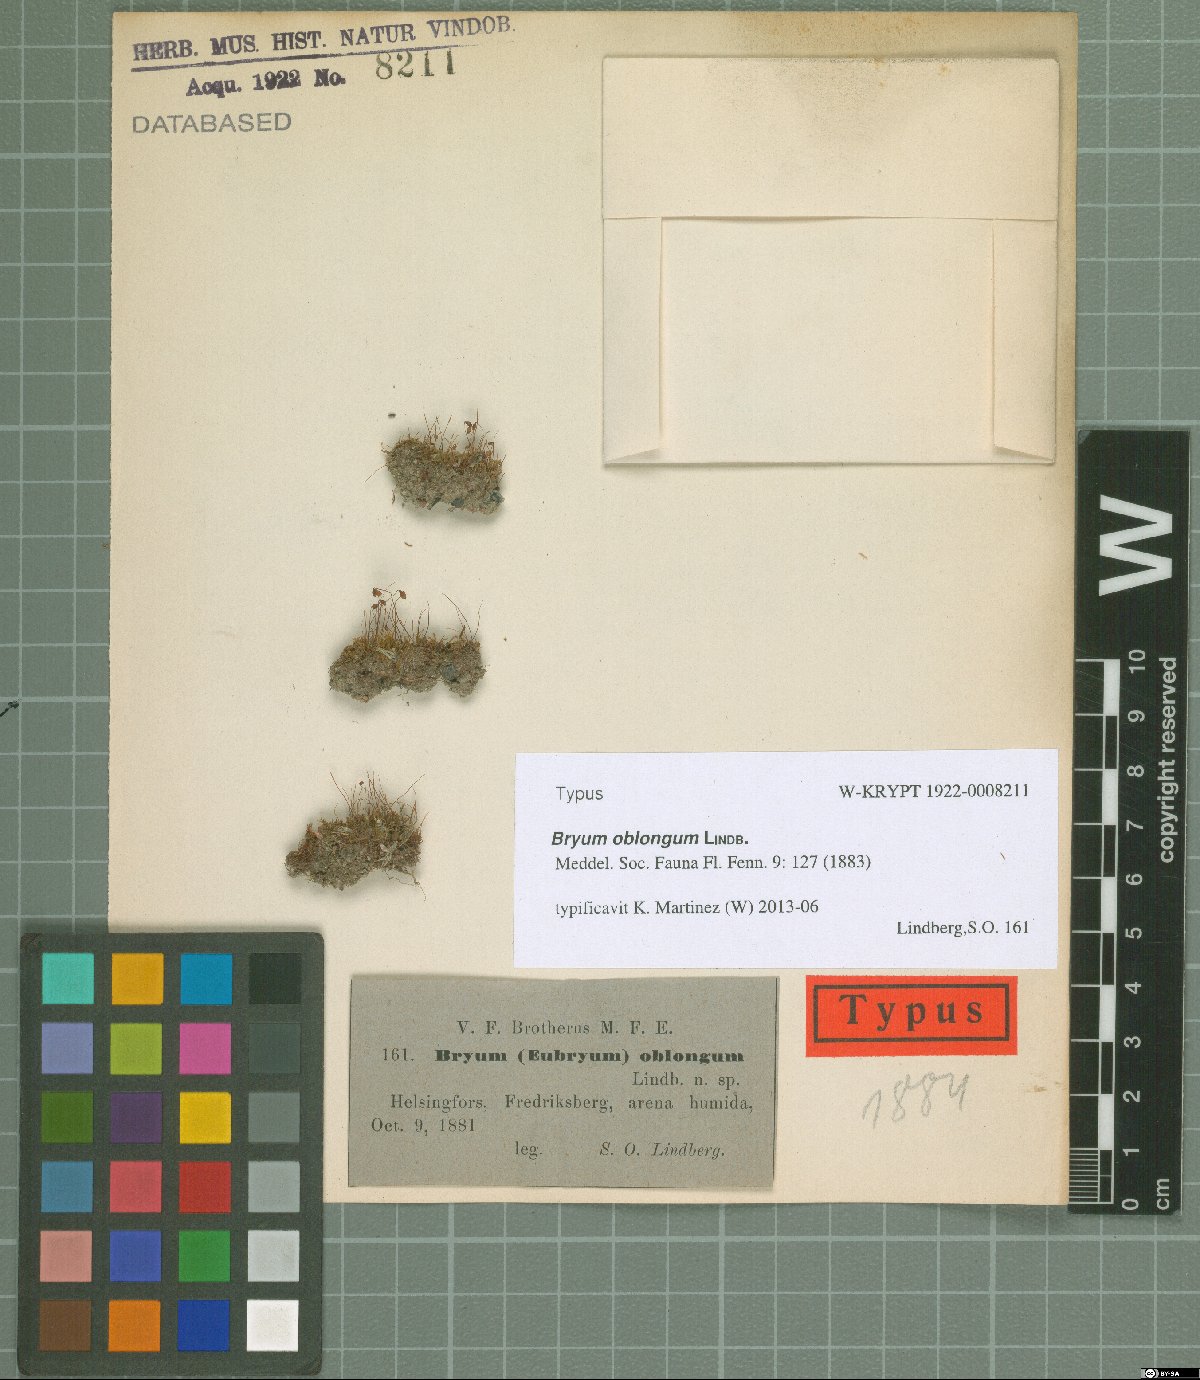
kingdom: Plantae
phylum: Bryophyta
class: Bryopsida
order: Bryales
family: Bryaceae
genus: Bryum
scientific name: Bryum oblongum
